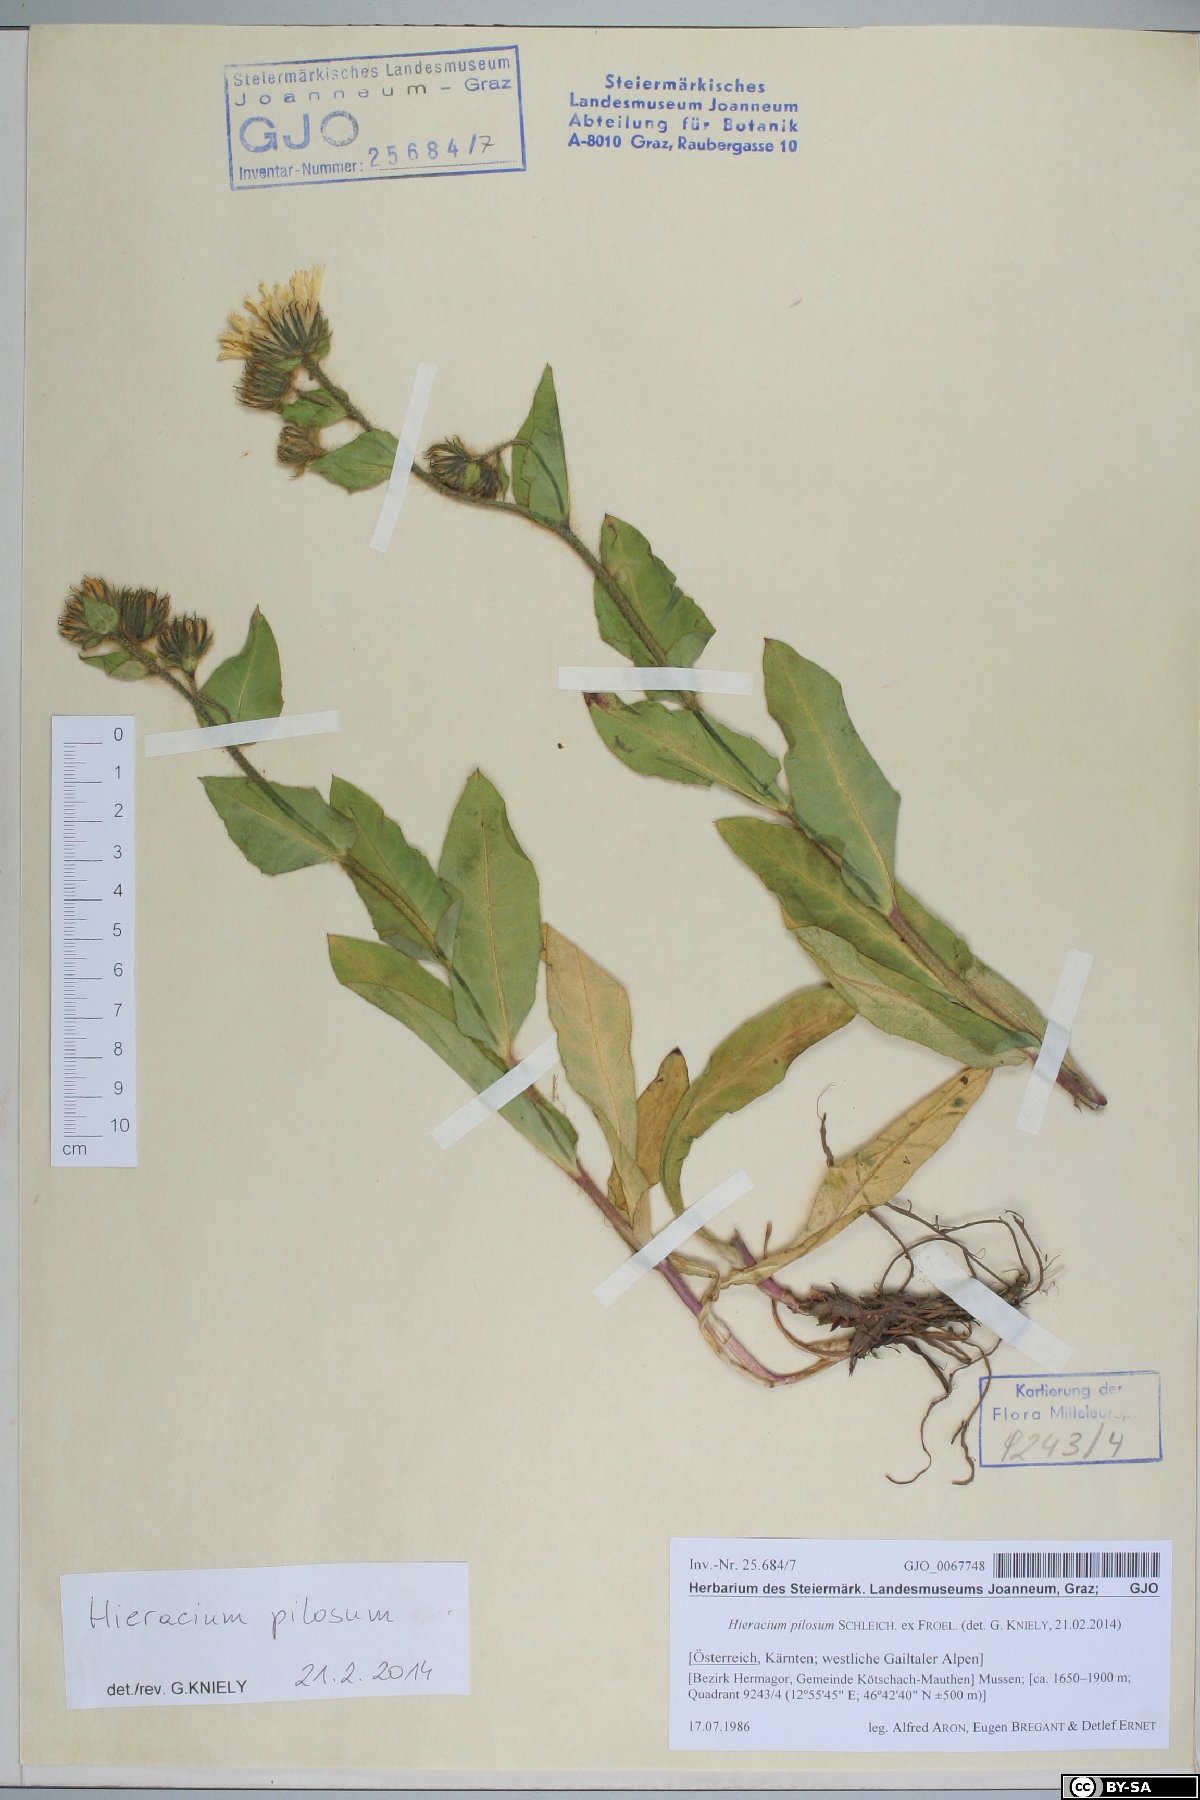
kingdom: Plantae
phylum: Tracheophyta
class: Magnoliopsida
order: Asterales
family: Asteraceae
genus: Hieracium
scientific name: Hieracium pilosum
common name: Fimbriate-pitted hawkweed
